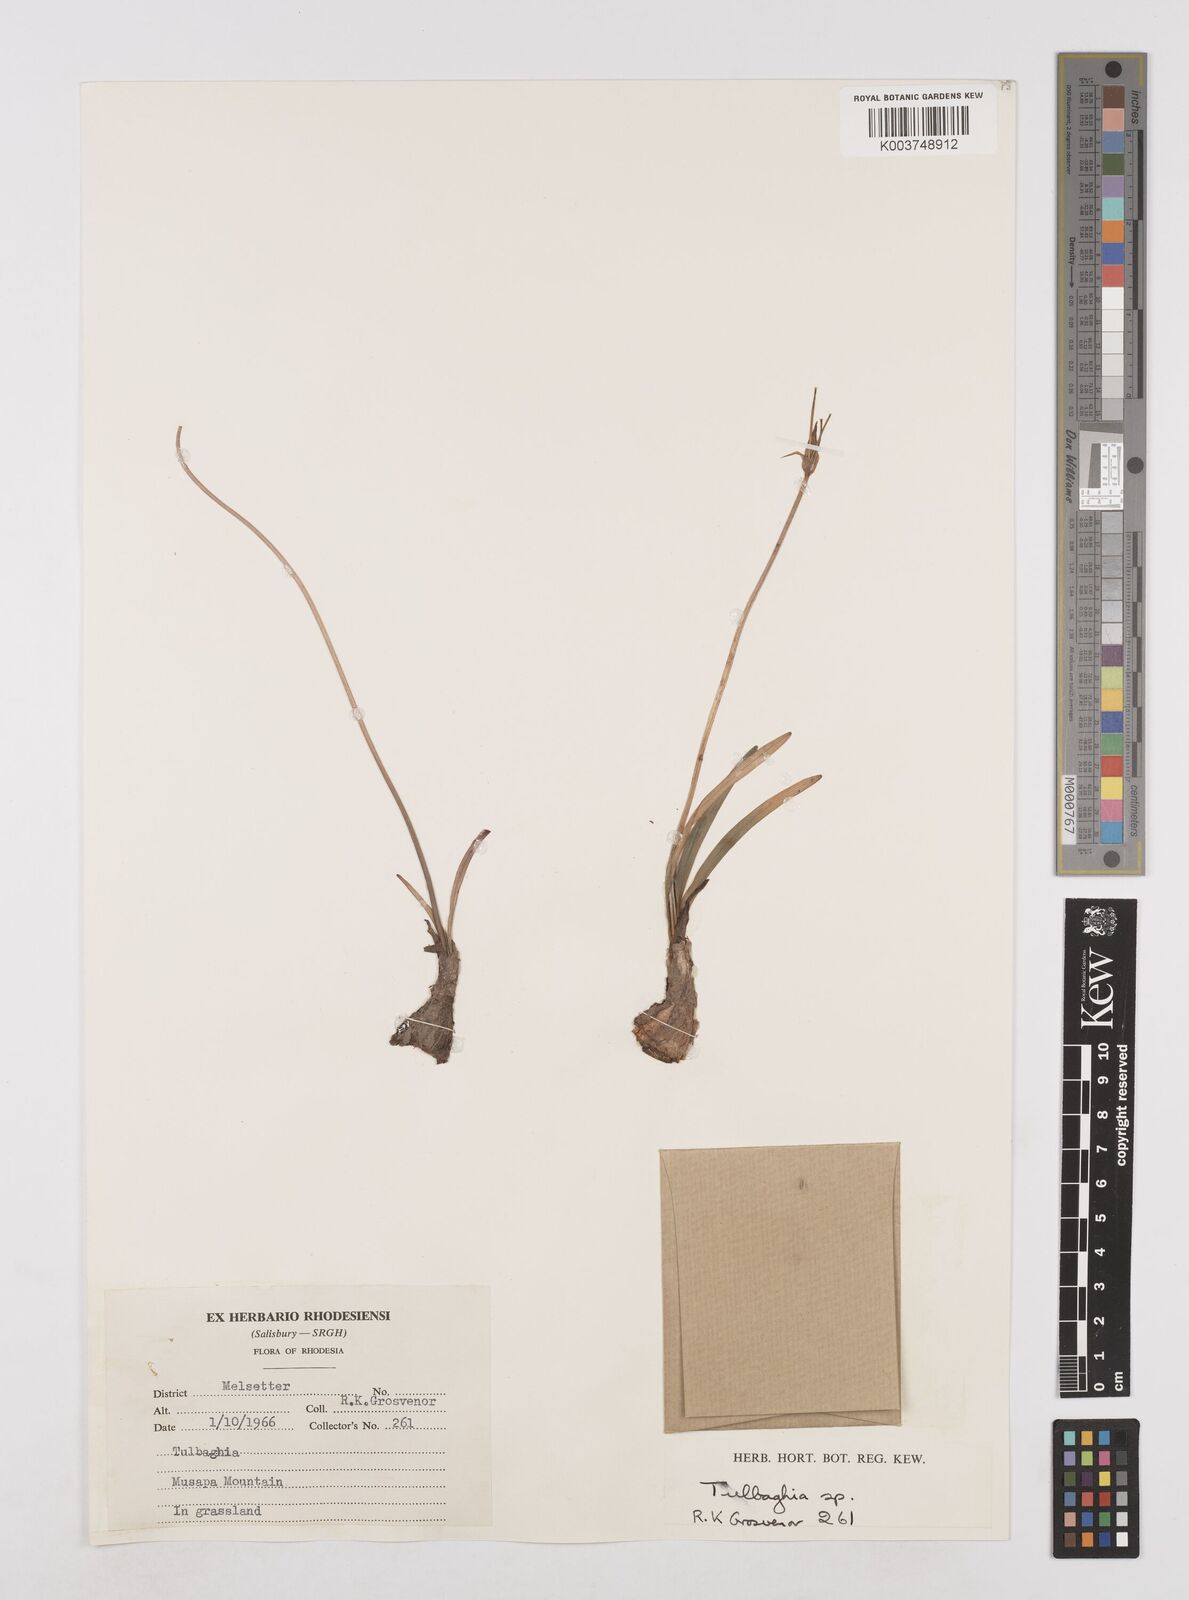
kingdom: Plantae
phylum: Tracheophyta
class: Liliopsida
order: Asparagales
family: Amaryllidaceae
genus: Tulbaghia
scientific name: Tulbaghia
